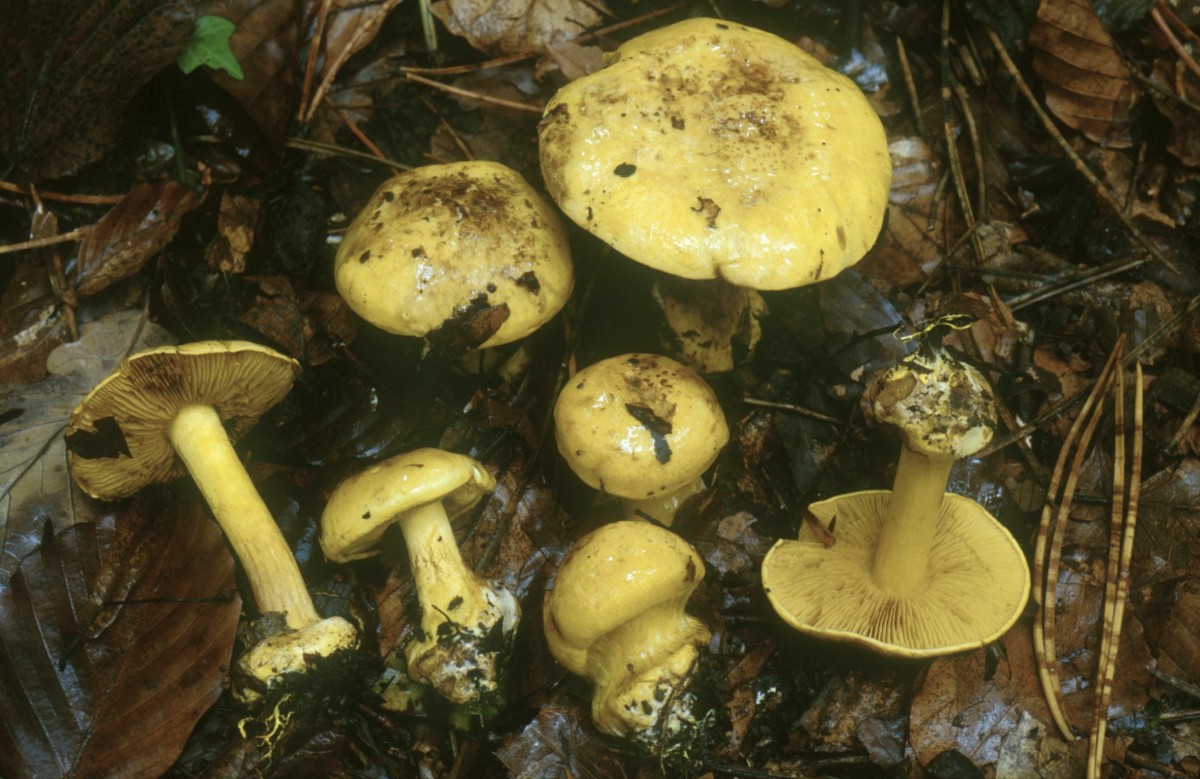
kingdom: Fungi
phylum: Basidiomycota
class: Agaricomycetes
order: Agaricales
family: Cortinariaceae
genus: Calonarius
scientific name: Calonarius splendens
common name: sirene-slørhat
